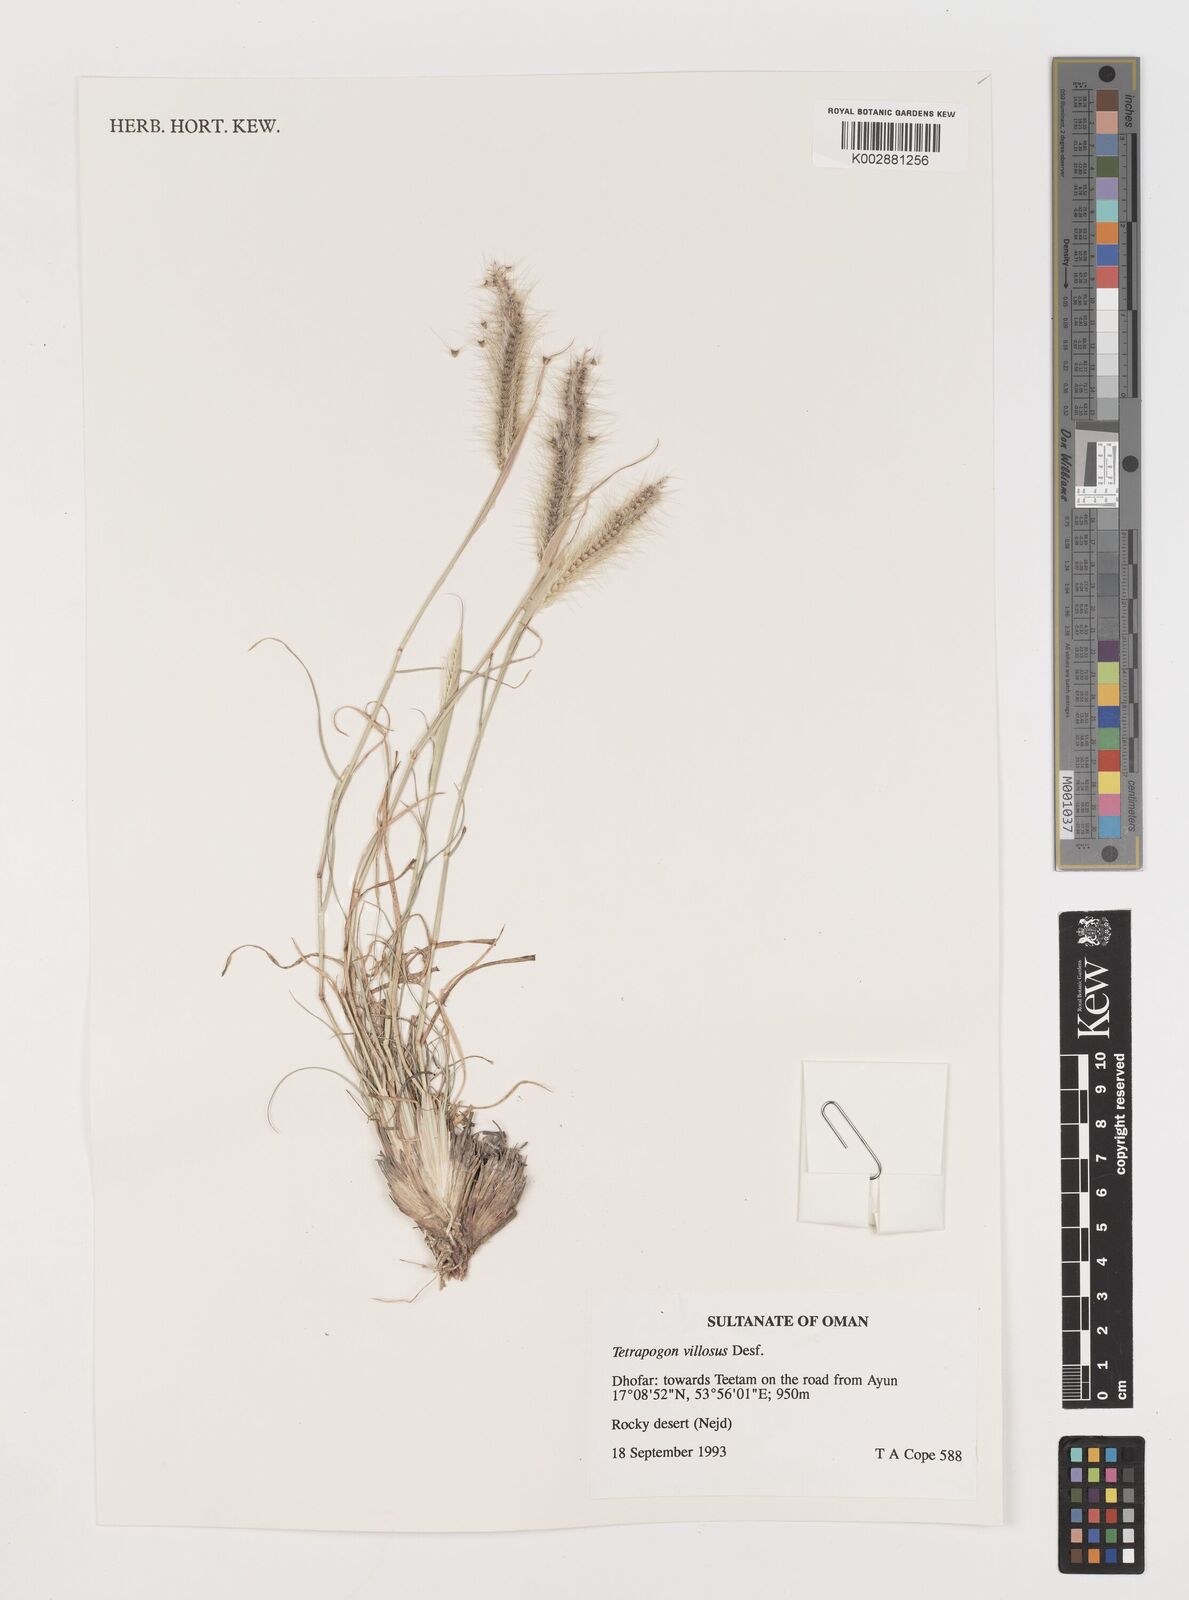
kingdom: Plantae
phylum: Tracheophyta
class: Liliopsida
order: Poales
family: Poaceae
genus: Tetrapogon
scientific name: Tetrapogon villosus
